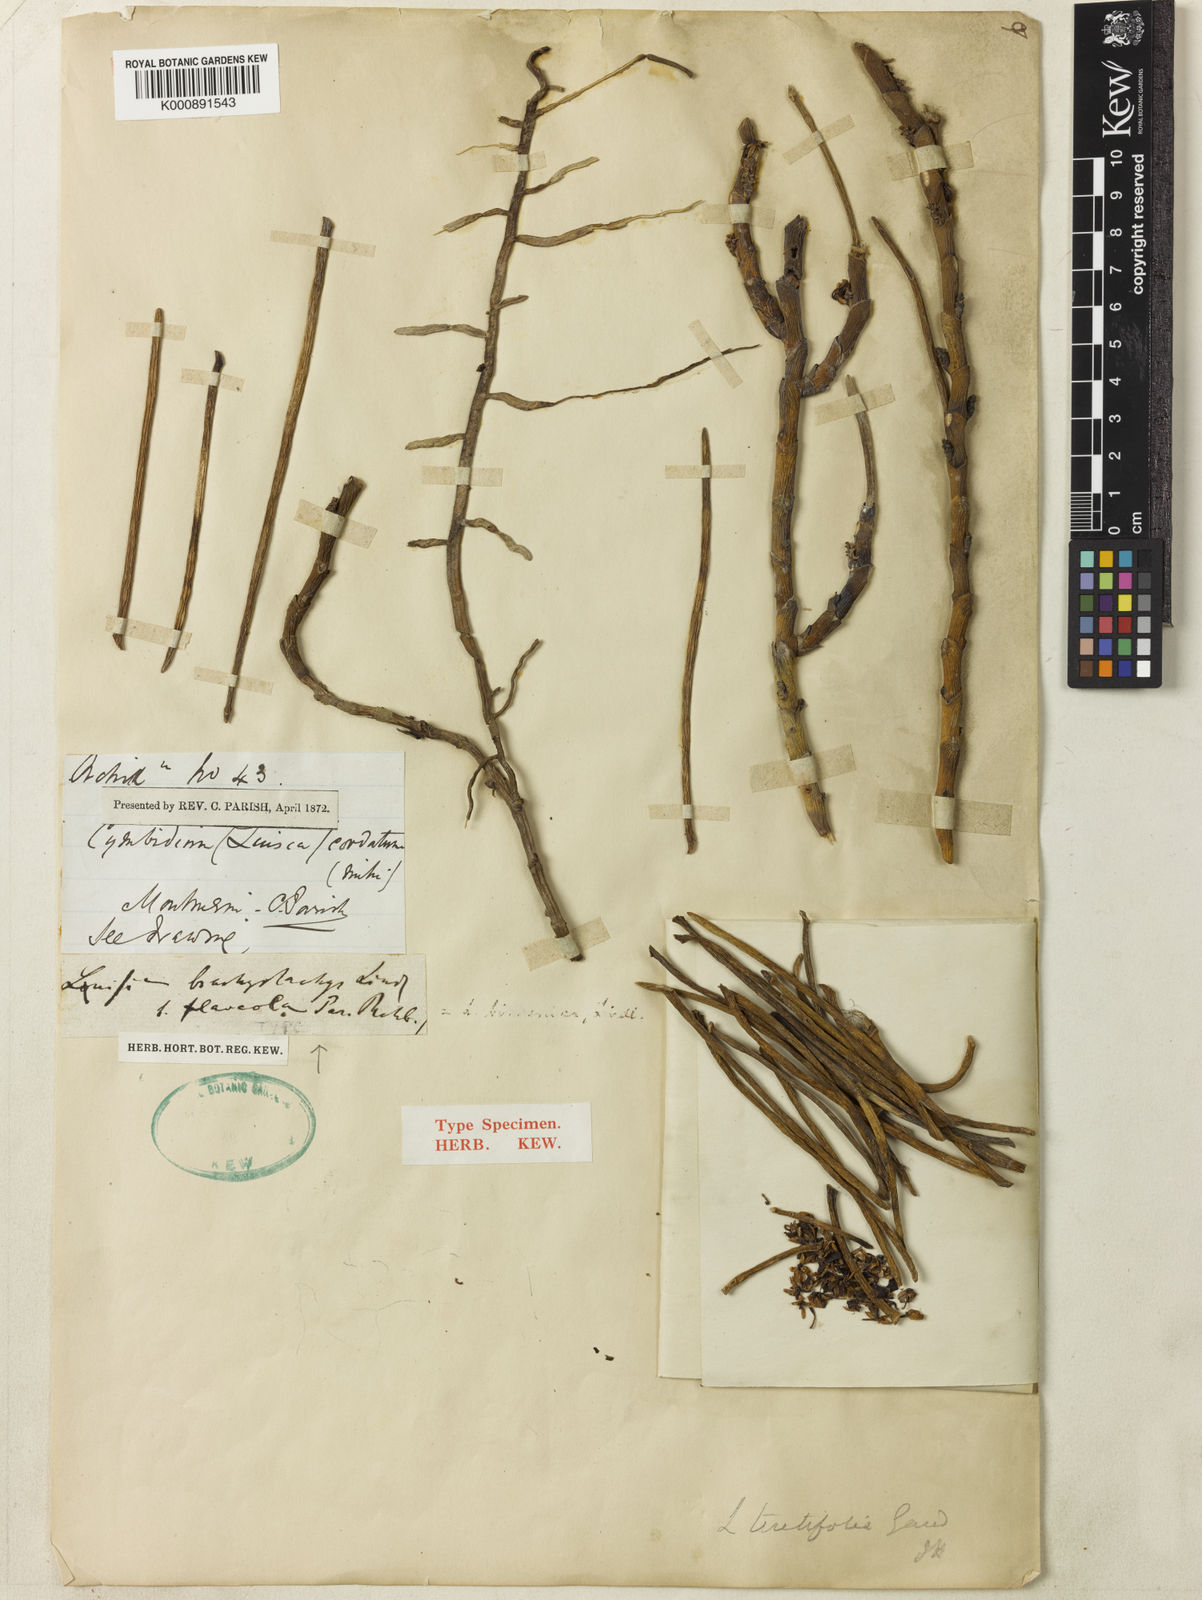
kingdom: Plantae
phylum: Tracheophyta
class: Liliopsida
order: Asparagales
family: Orchidaceae
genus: Luisia
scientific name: Luisia zeylanica
